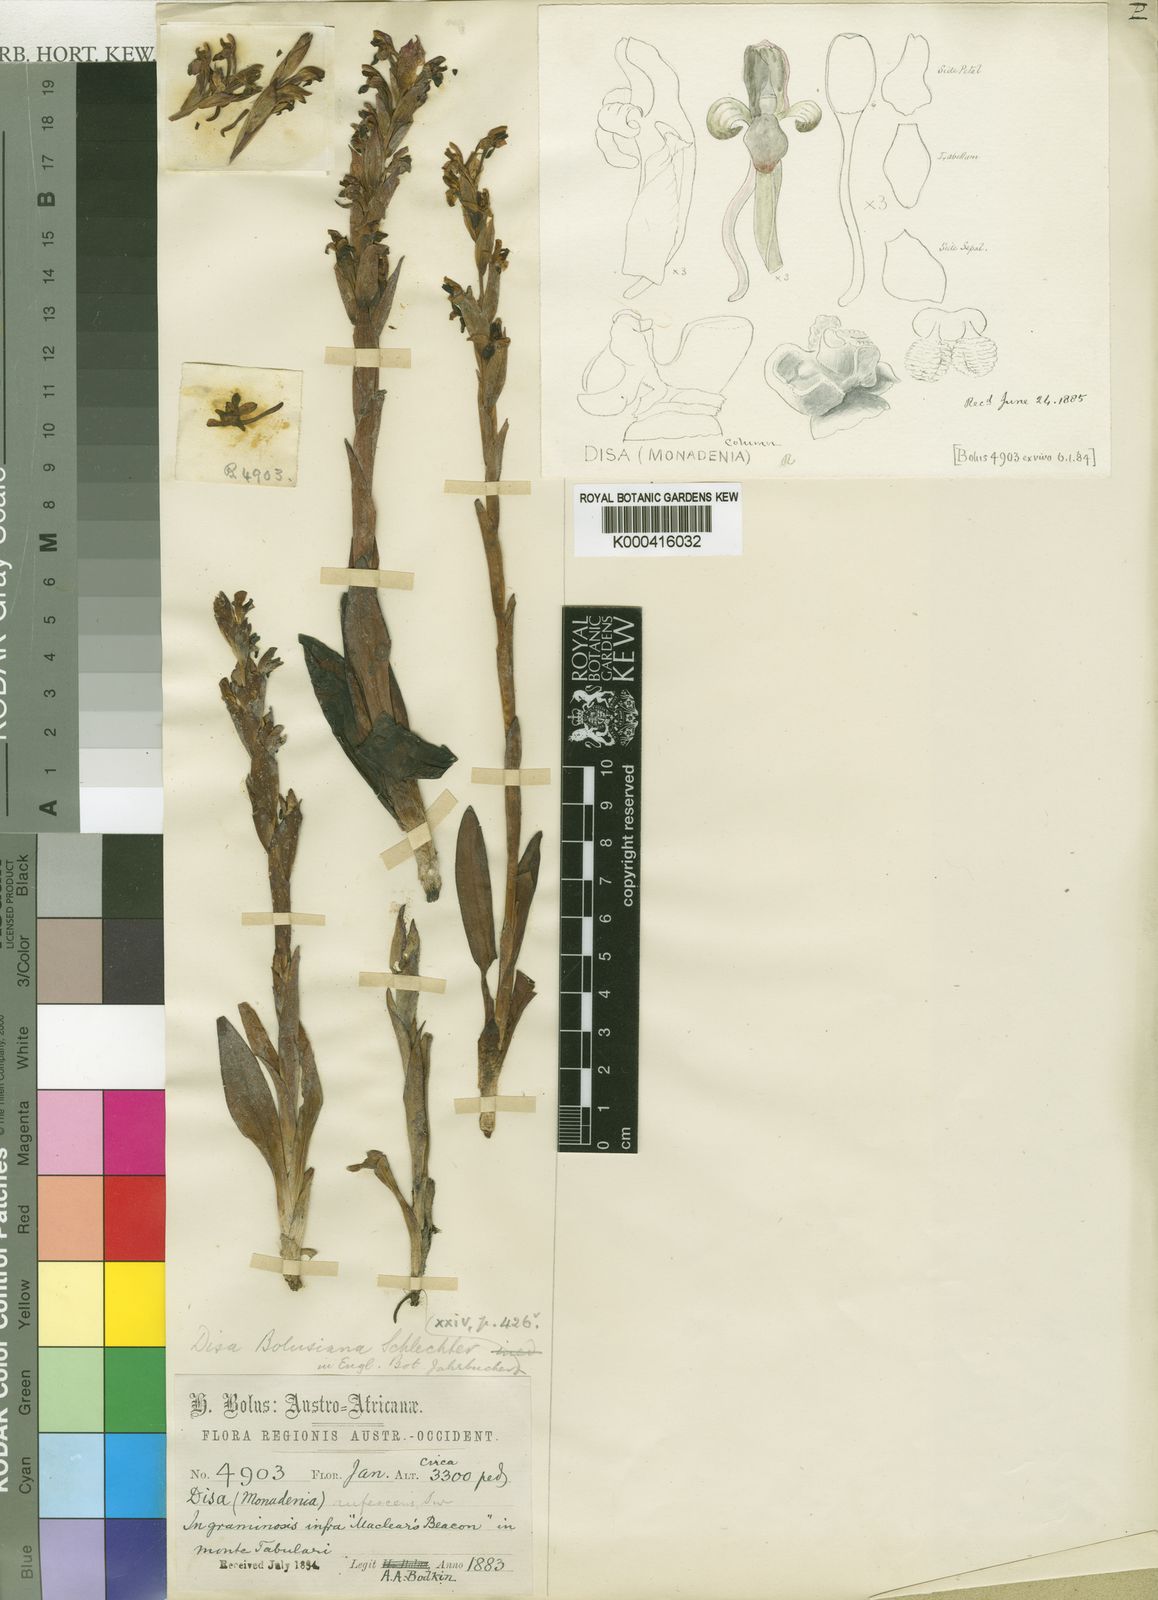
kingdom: Plantae
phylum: Tracheophyta
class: Liliopsida
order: Asparagales
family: Orchidaceae
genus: Disa
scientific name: Disa bolusiana
